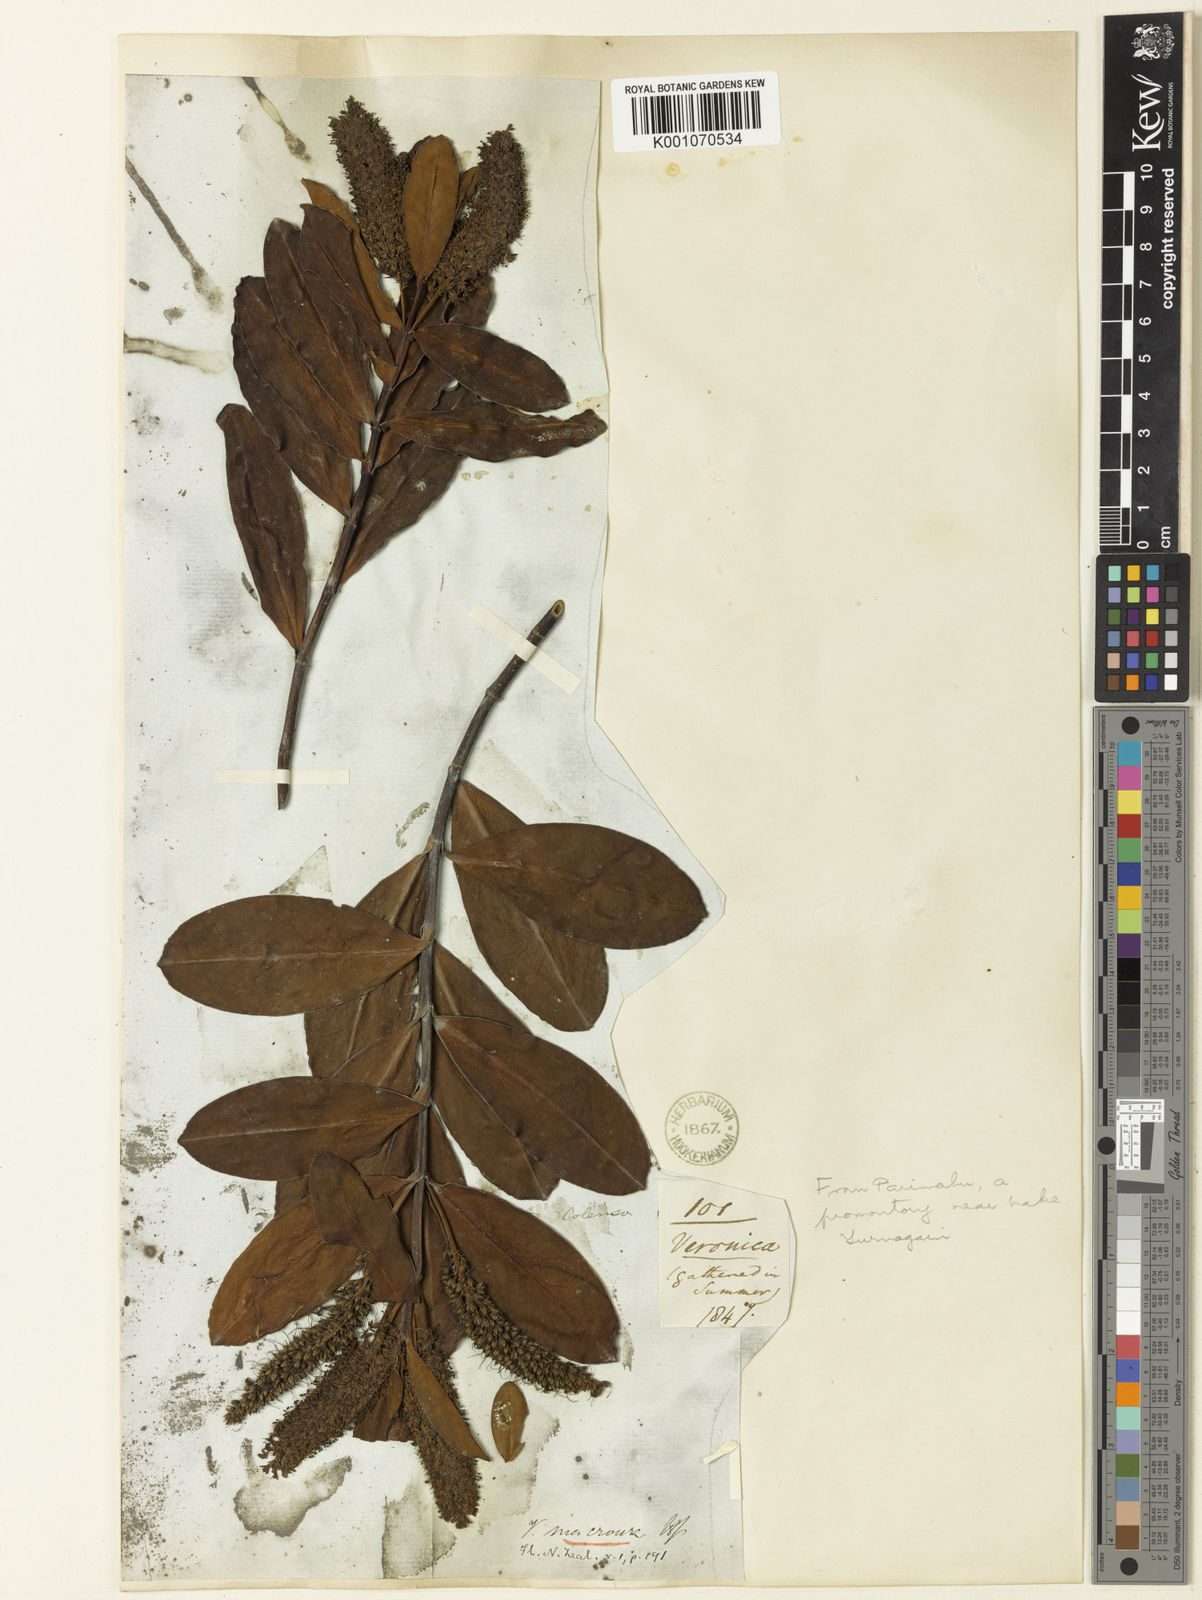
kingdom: Plantae
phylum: Tracheophyta
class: Magnoliopsida
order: Lamiales
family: Plantaginaceae
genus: Veronica
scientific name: Veronica
